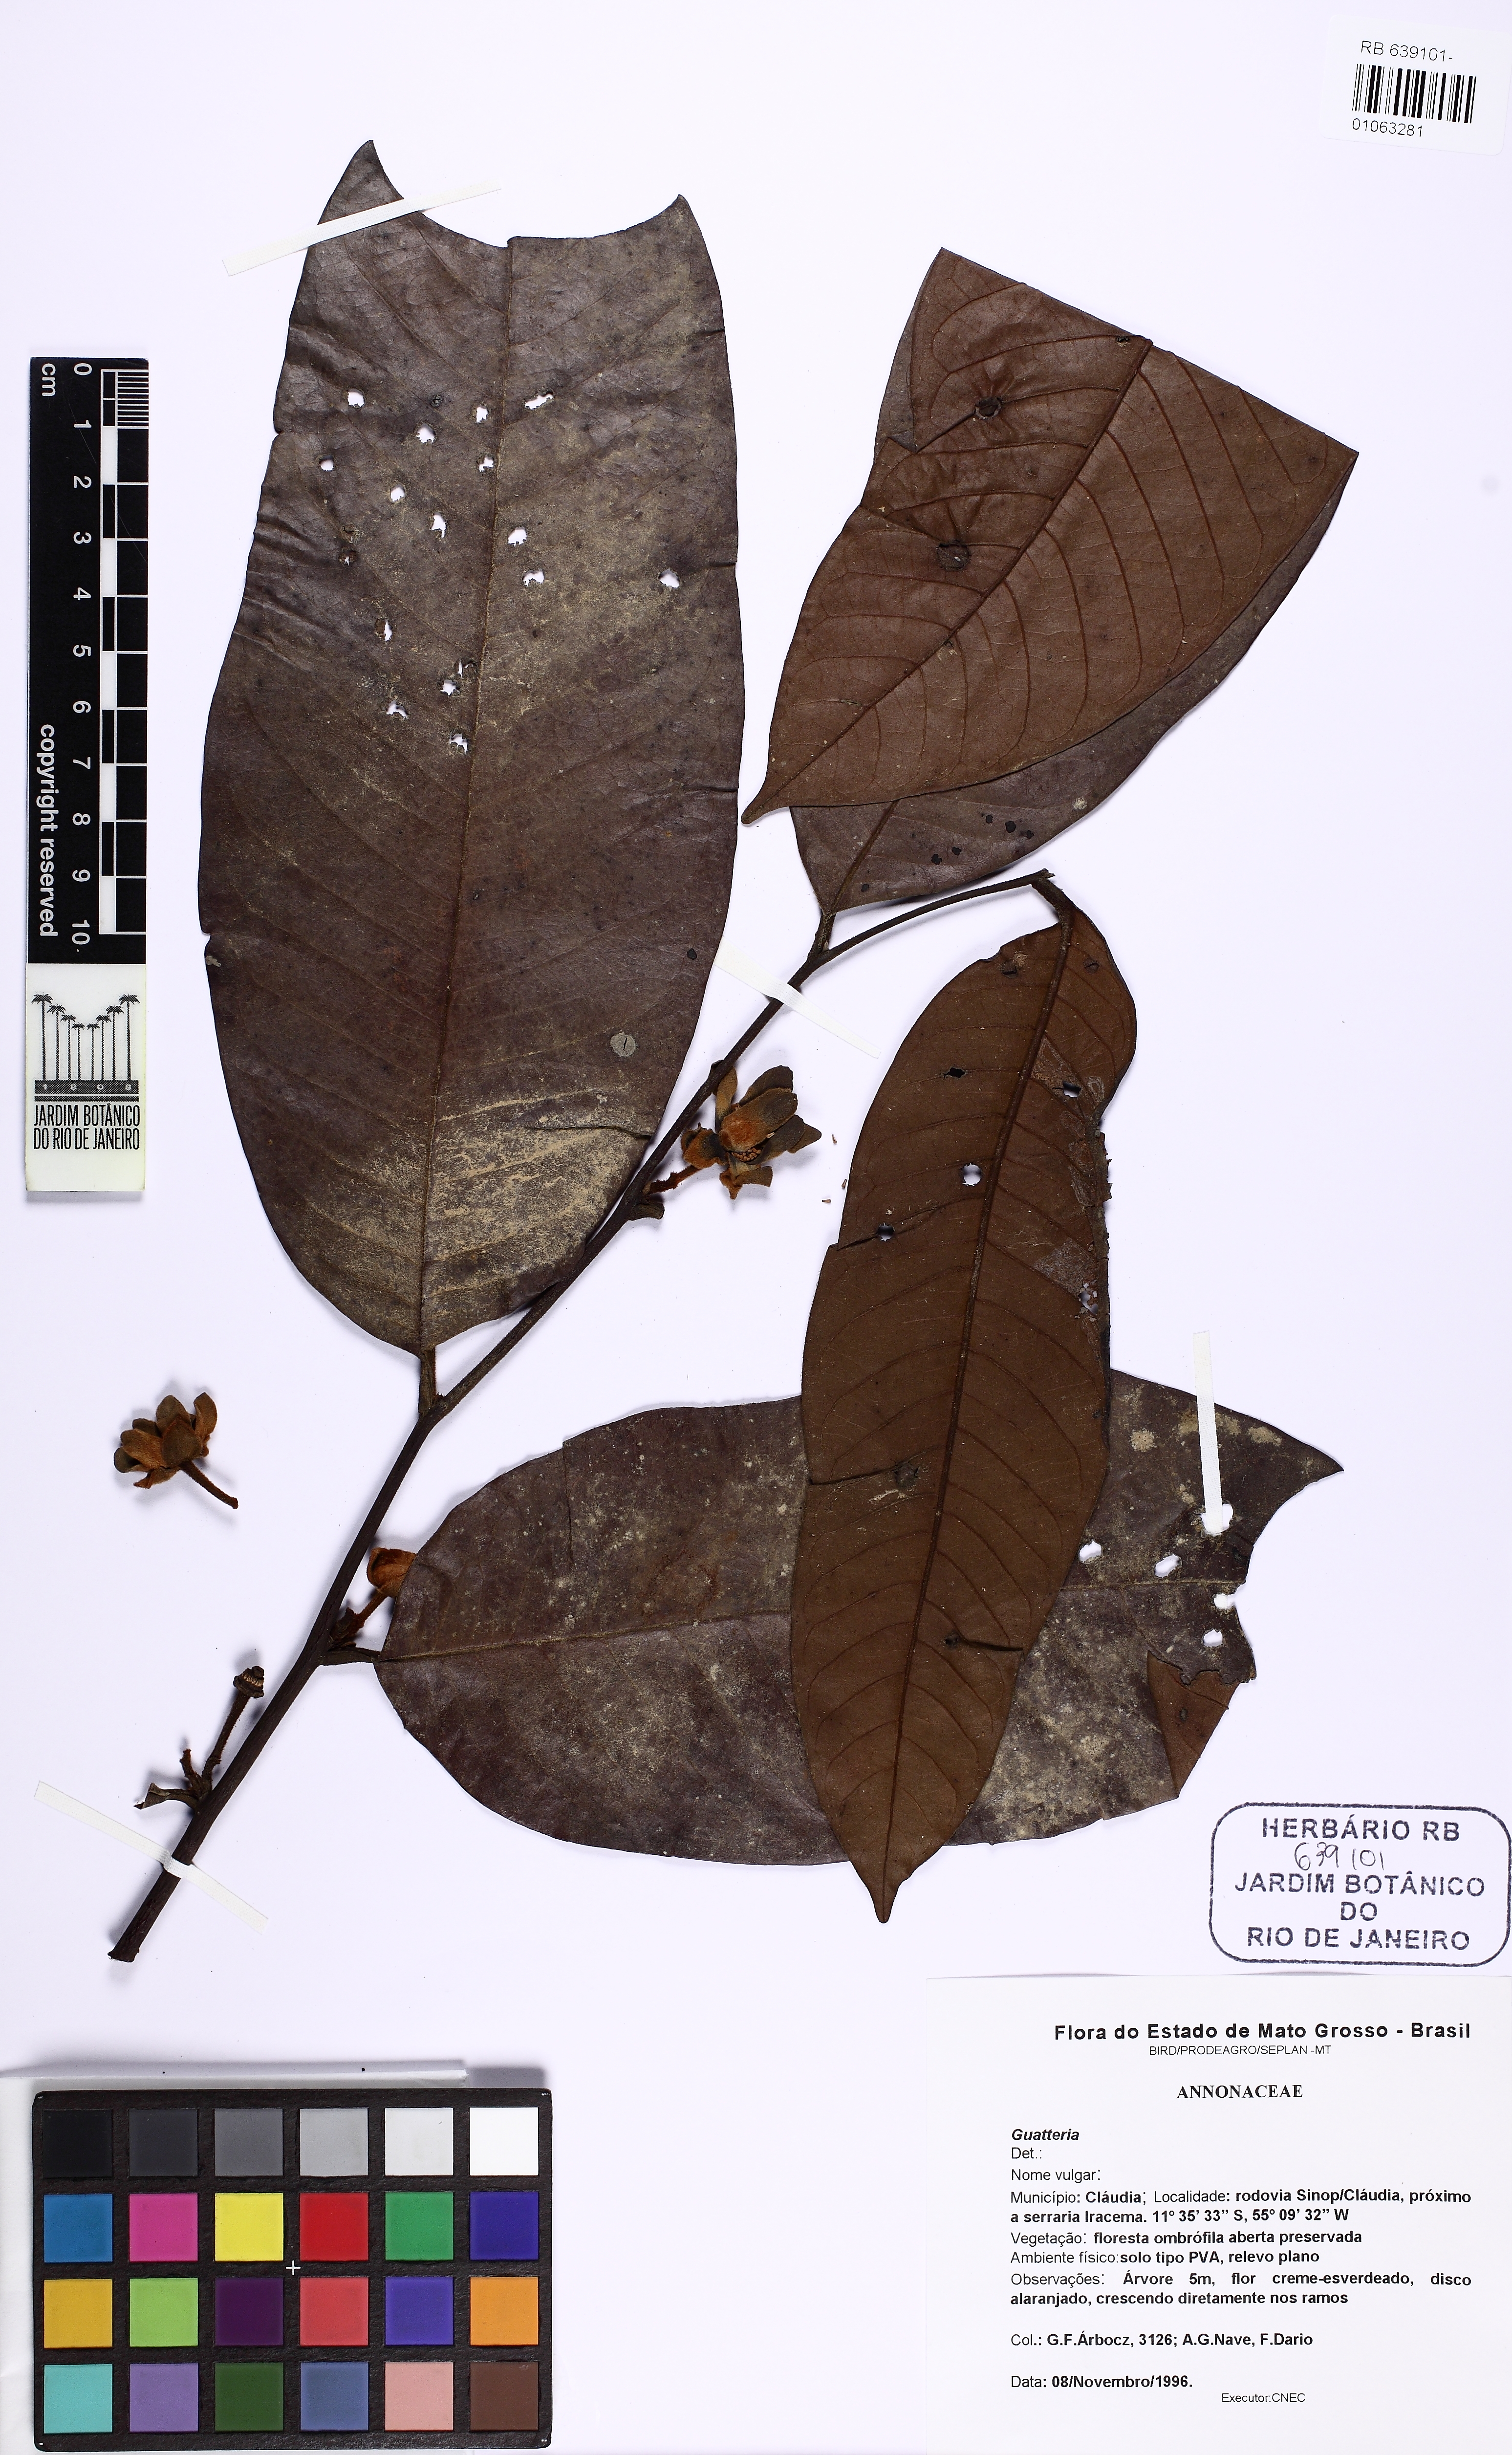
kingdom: Plantae
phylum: Tracheophyta
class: Magnoliopsida
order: Magnoliales
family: Annonaceae
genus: Guatteria
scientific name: Guatteria
